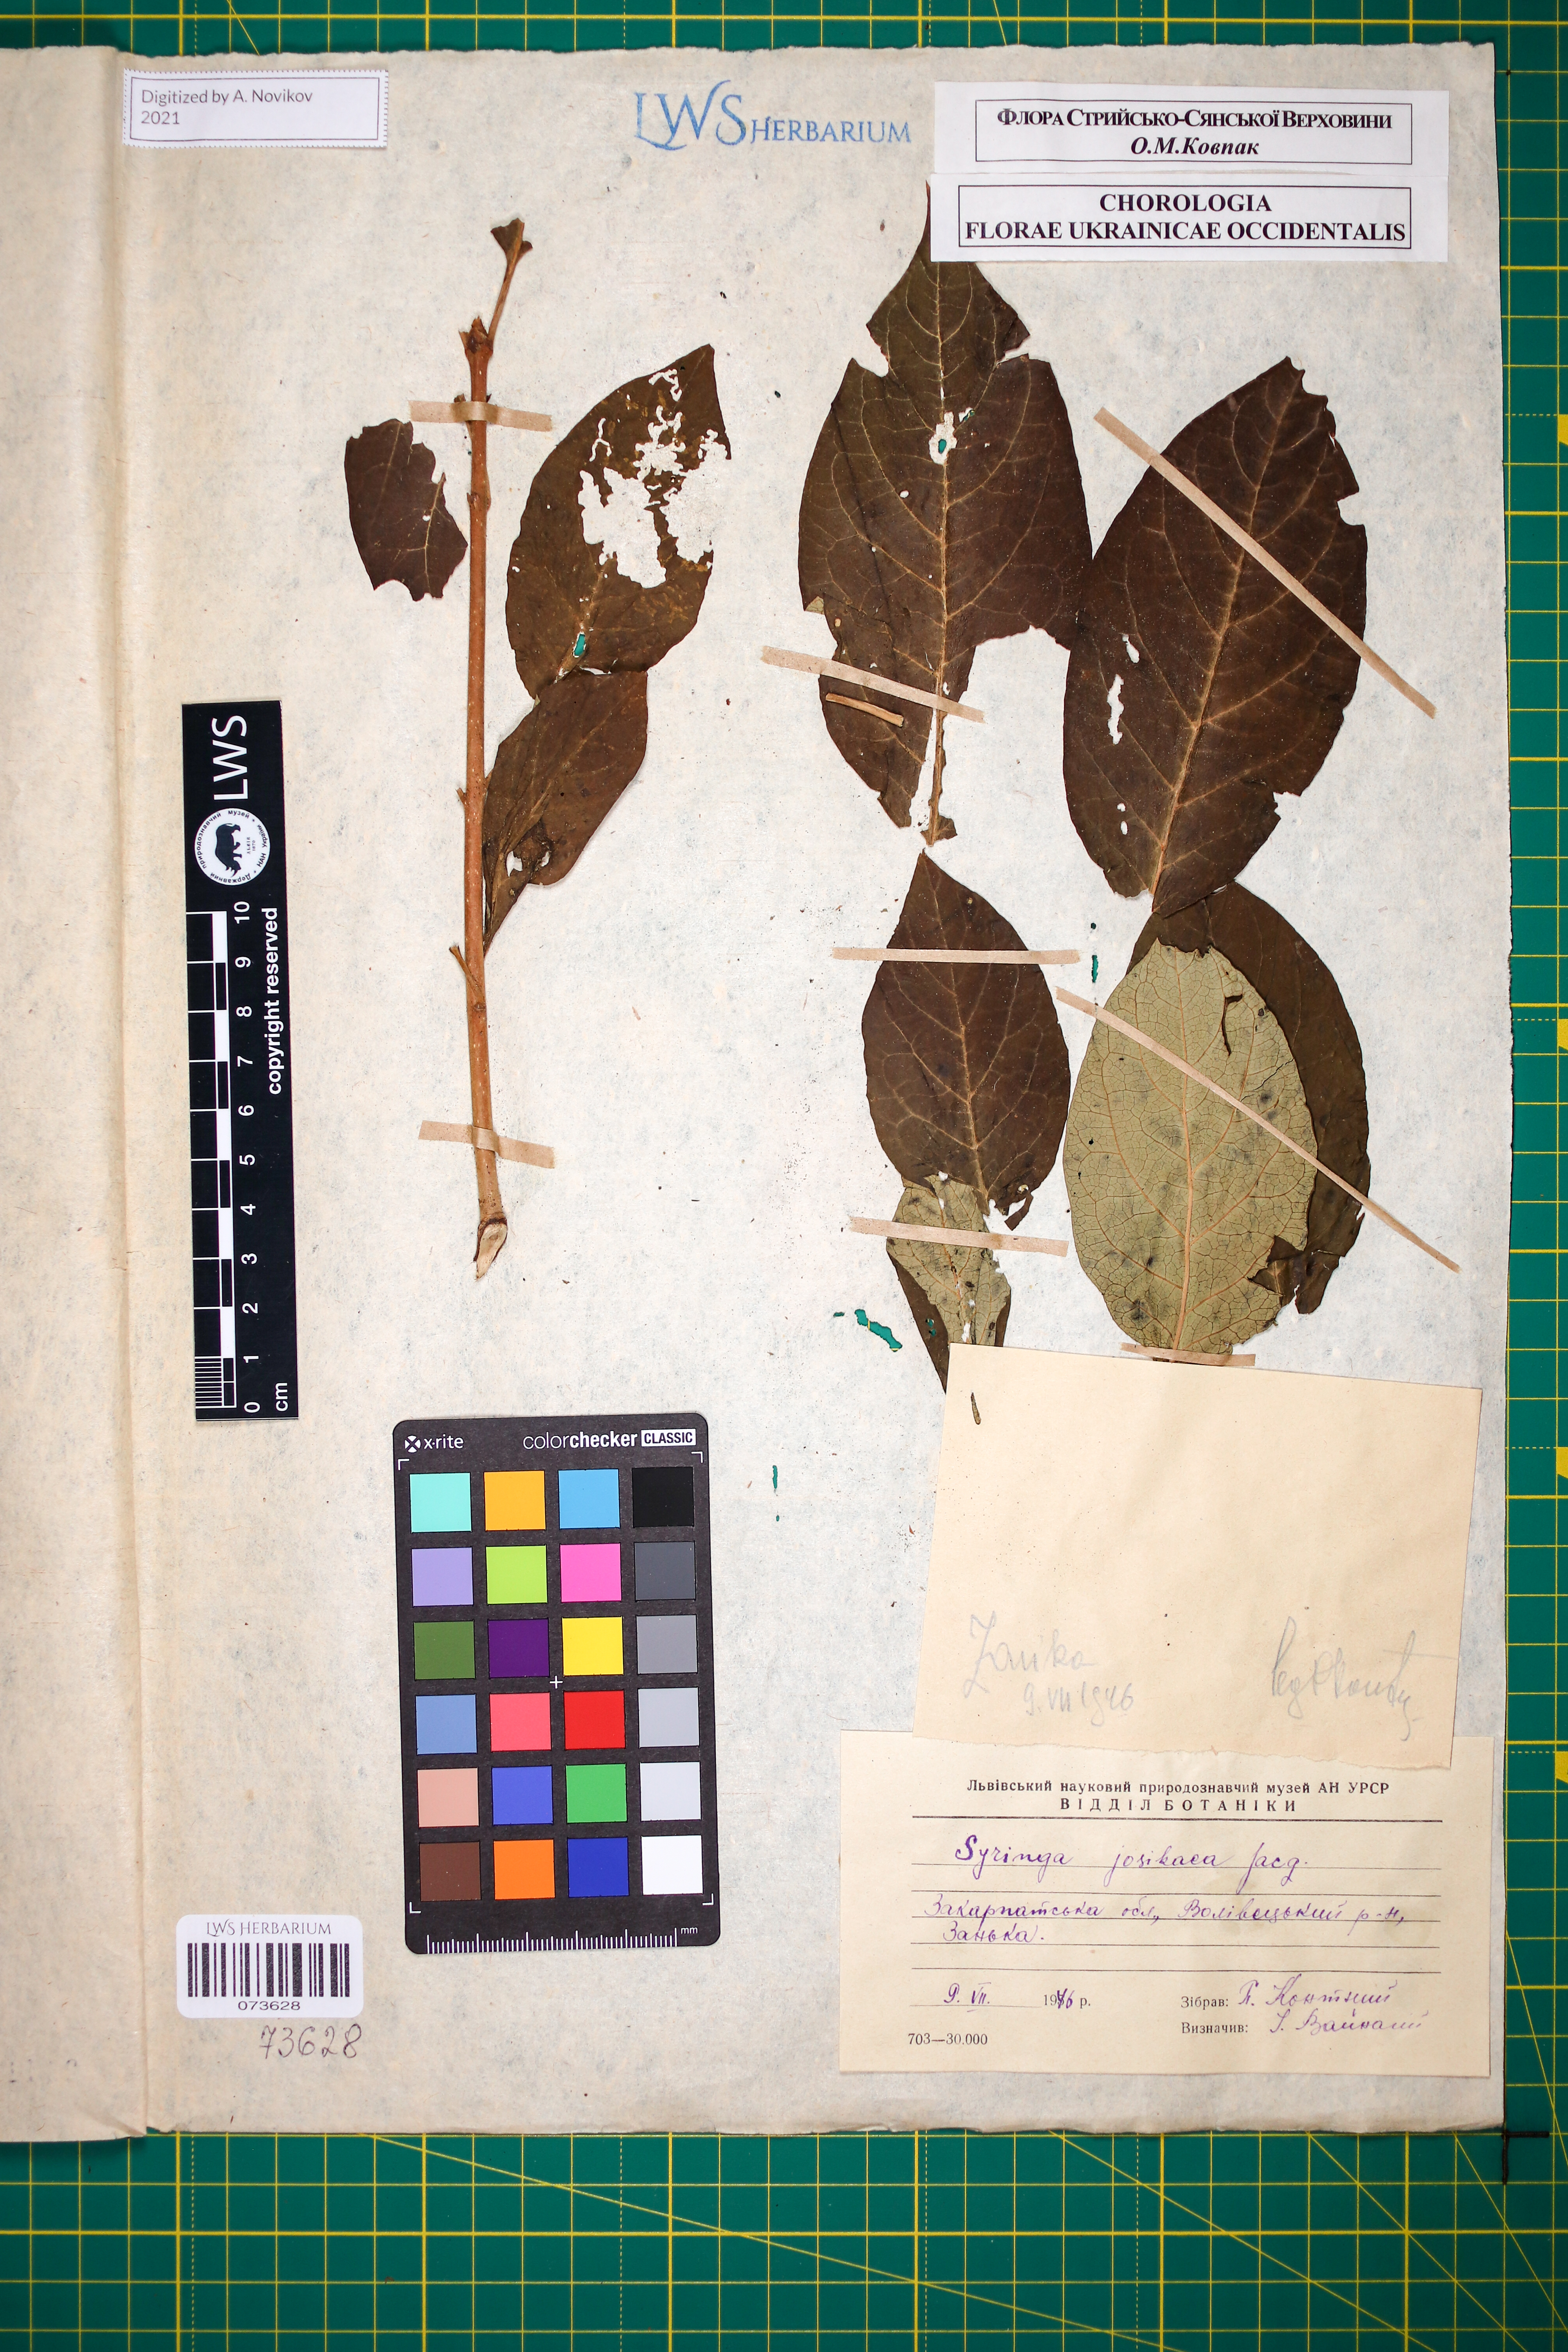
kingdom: Plantae
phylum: Tracheophyta
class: Magnoliopsida
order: Lamiales
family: Oleaceae
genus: Syringa
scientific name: Syringa josikaea
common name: Hungarian lilac
